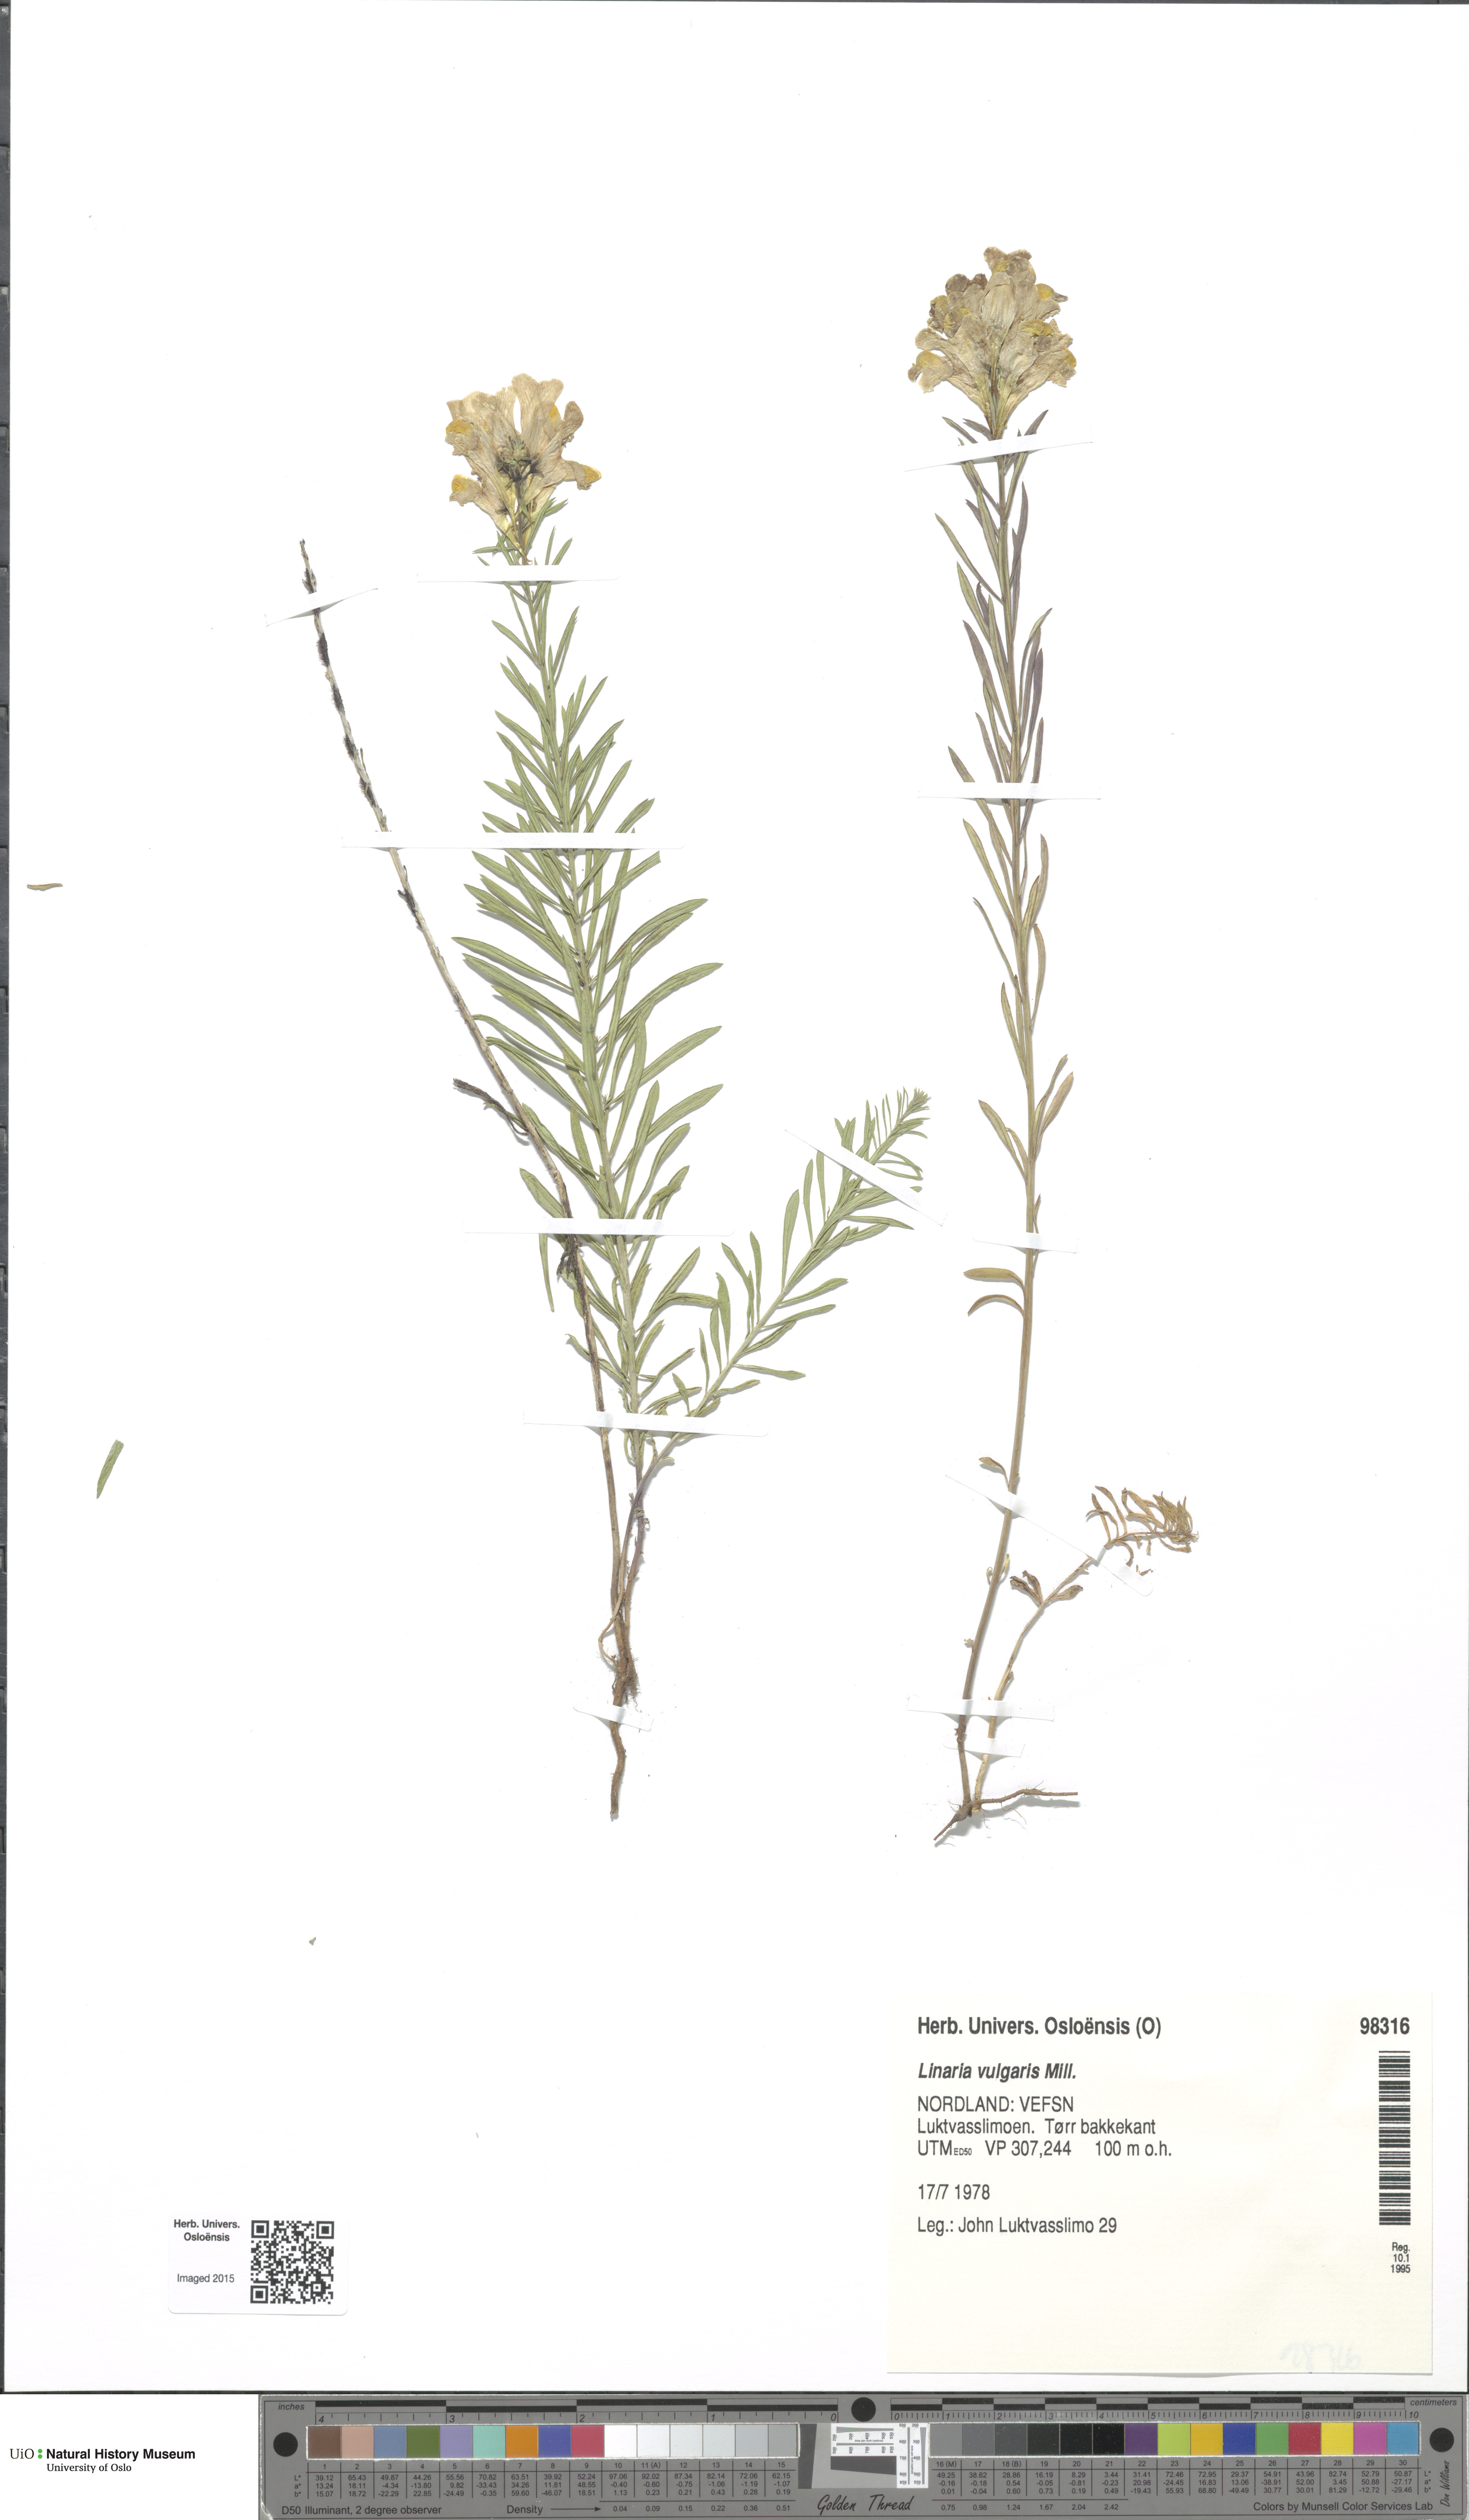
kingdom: Plantae
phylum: Tracheophyta
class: Magnoliopsida
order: Lamiales
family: Plantaginaceae
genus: Linaria
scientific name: Linaria vulgaris
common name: Butter and eggs
